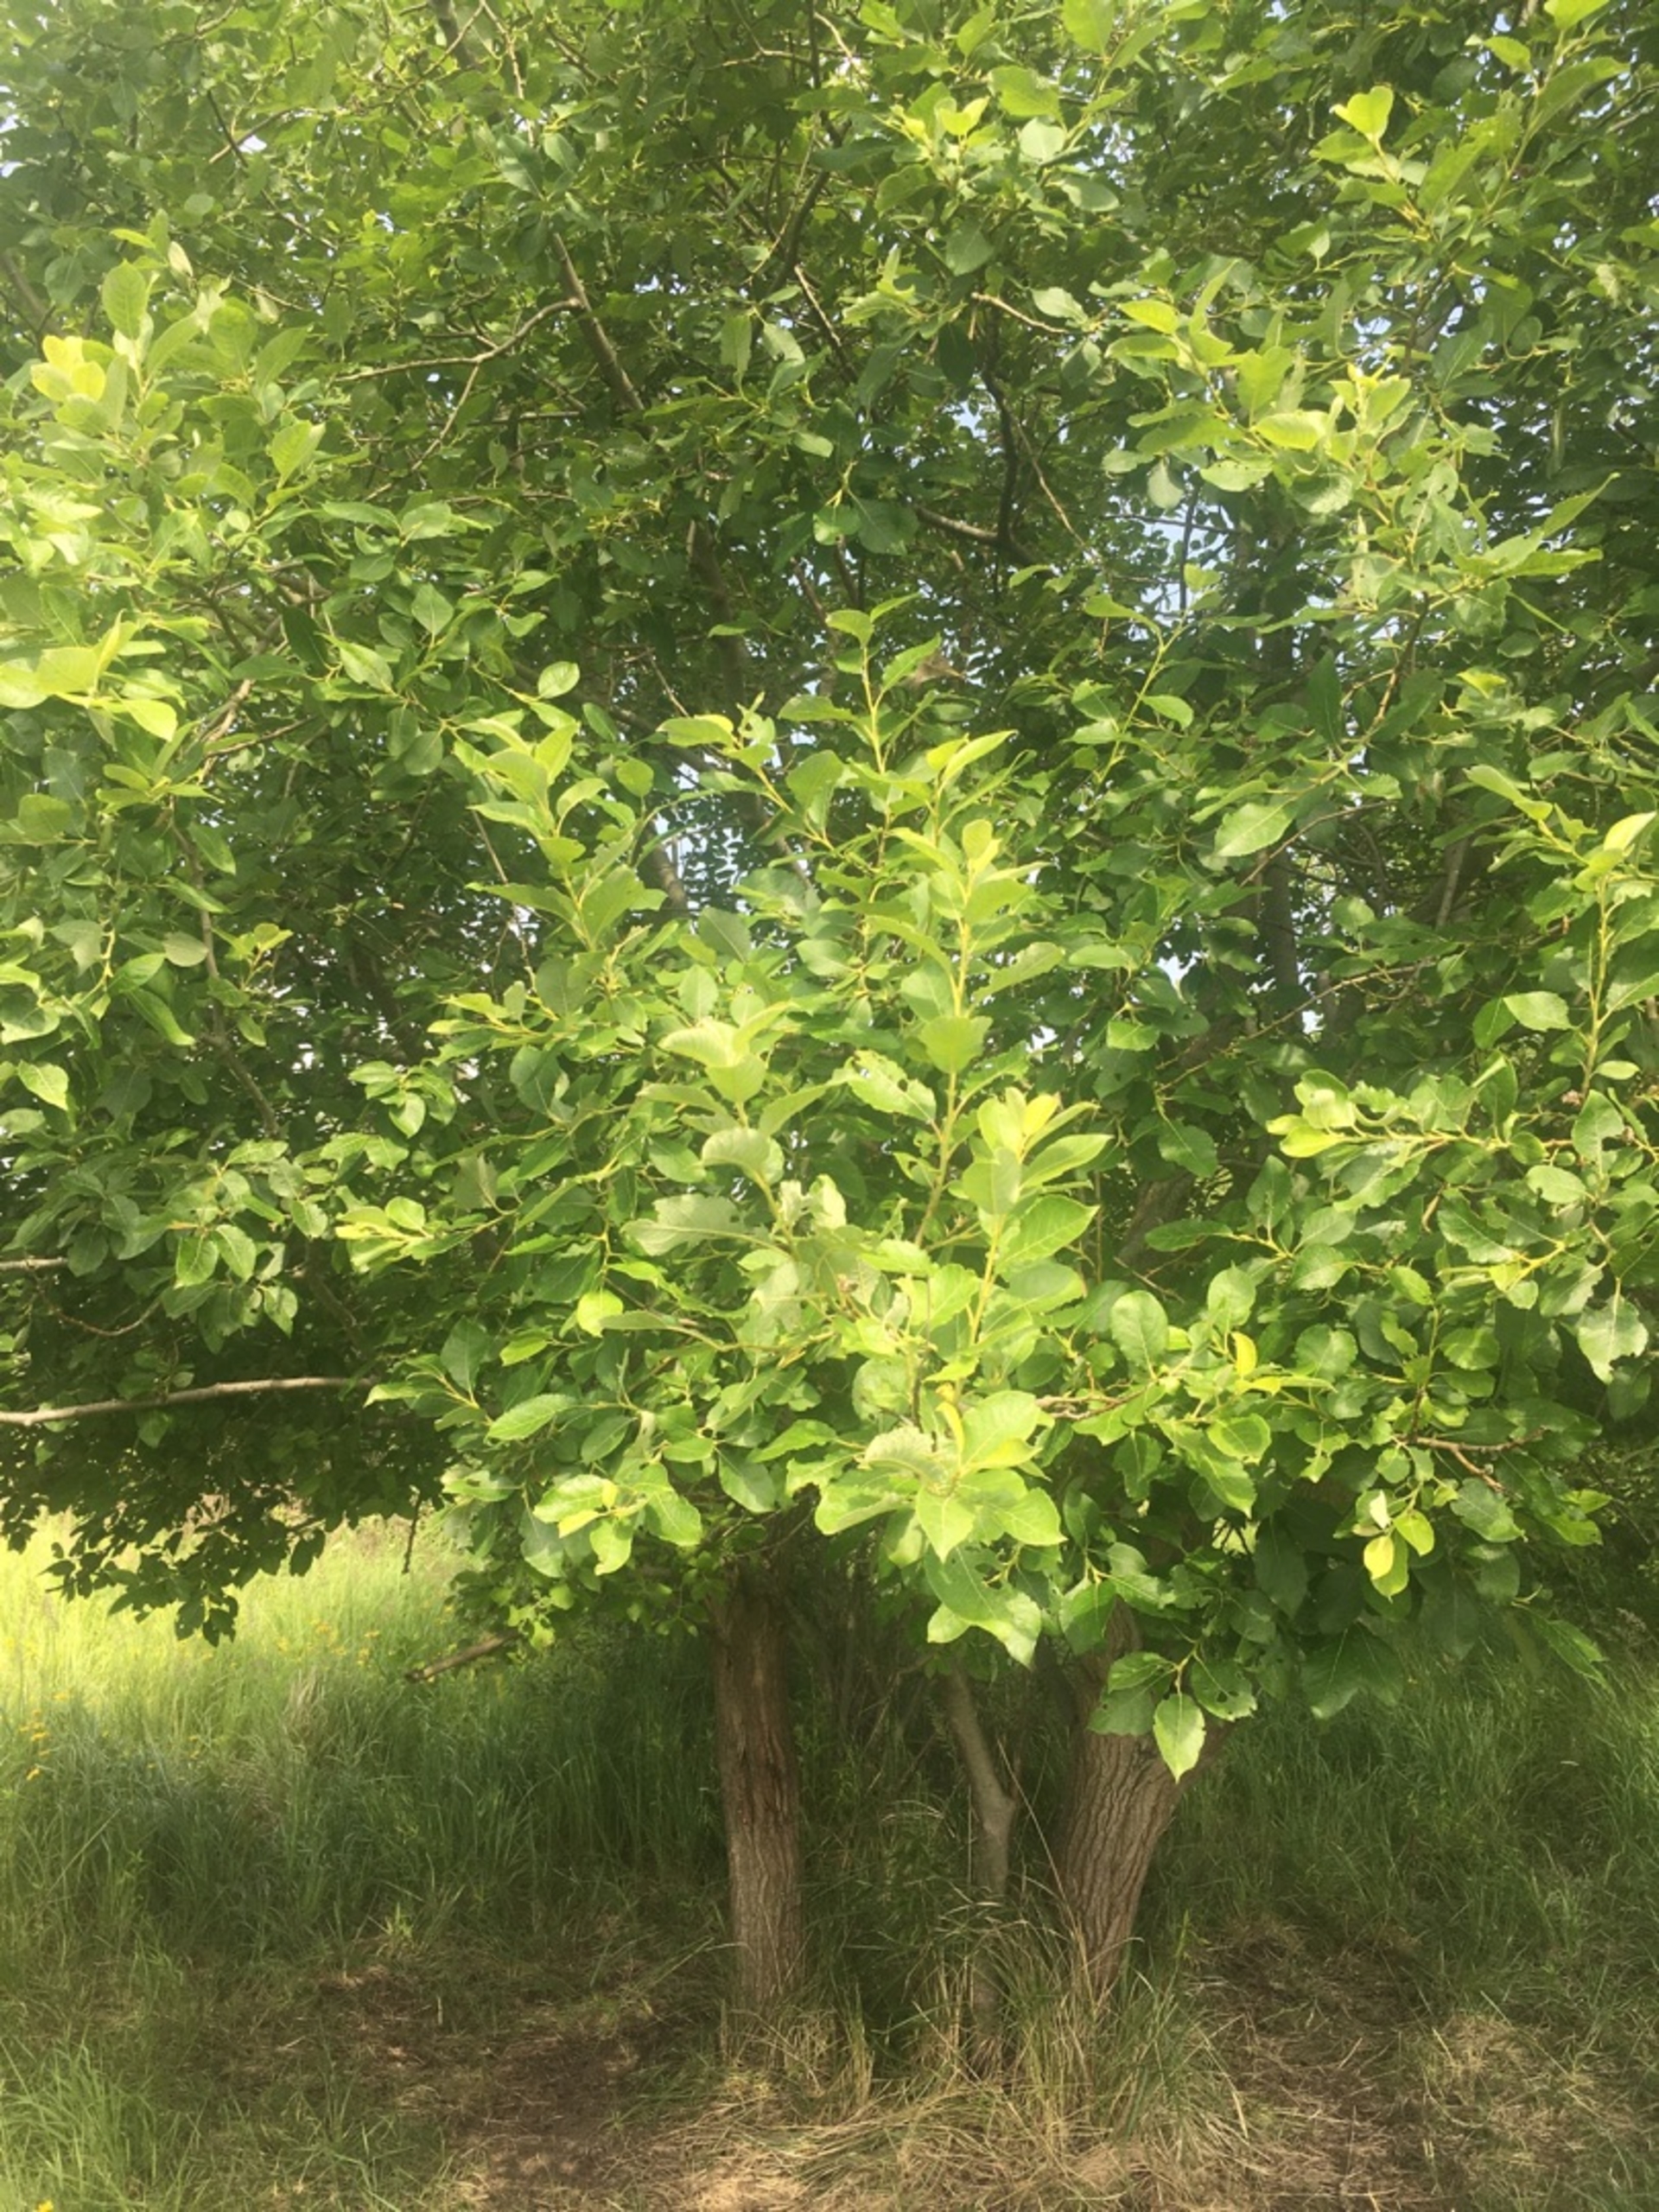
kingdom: Plantae
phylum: Tracheophyta
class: Magnoliopsida
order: Malpighiales
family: Salicaceae
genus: Salix
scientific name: Salix caprea
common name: Selje-pil
